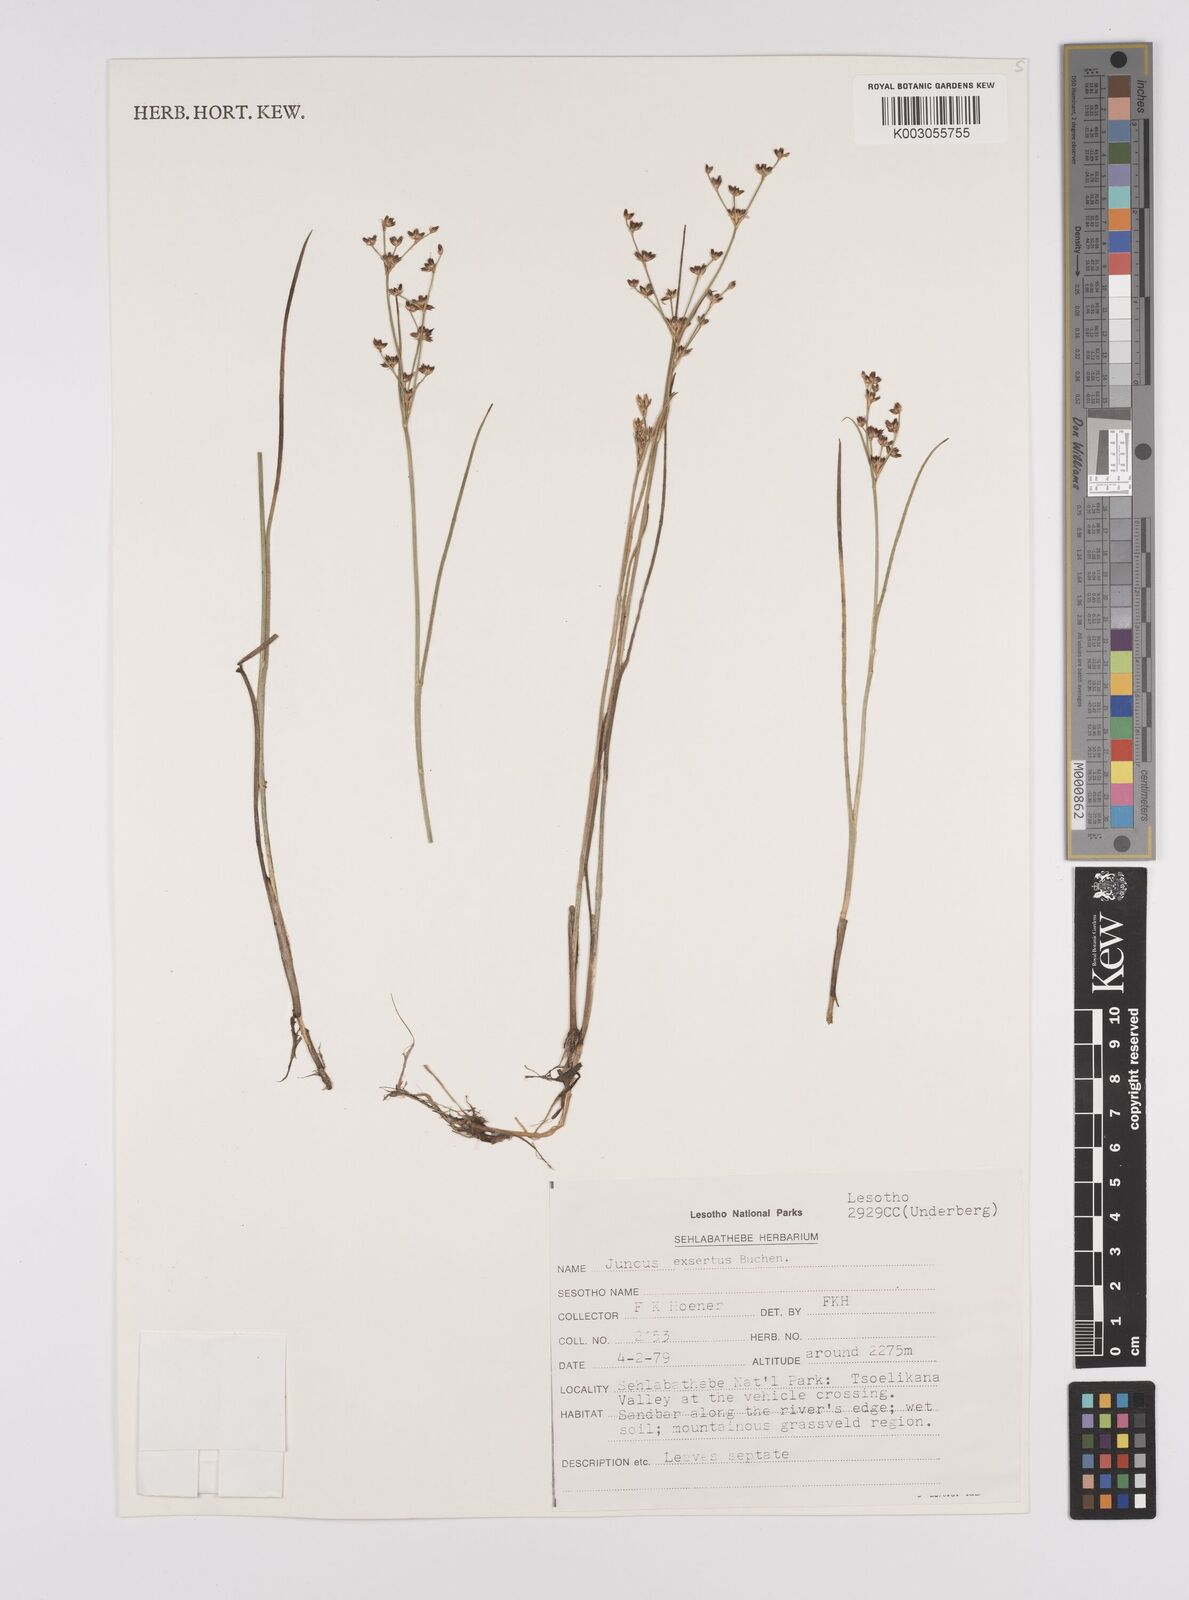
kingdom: Plantae
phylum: Tracheophyta
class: Liliopsida
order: Poales
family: Juncaceae
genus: Juncus
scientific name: Juncus exsertus
